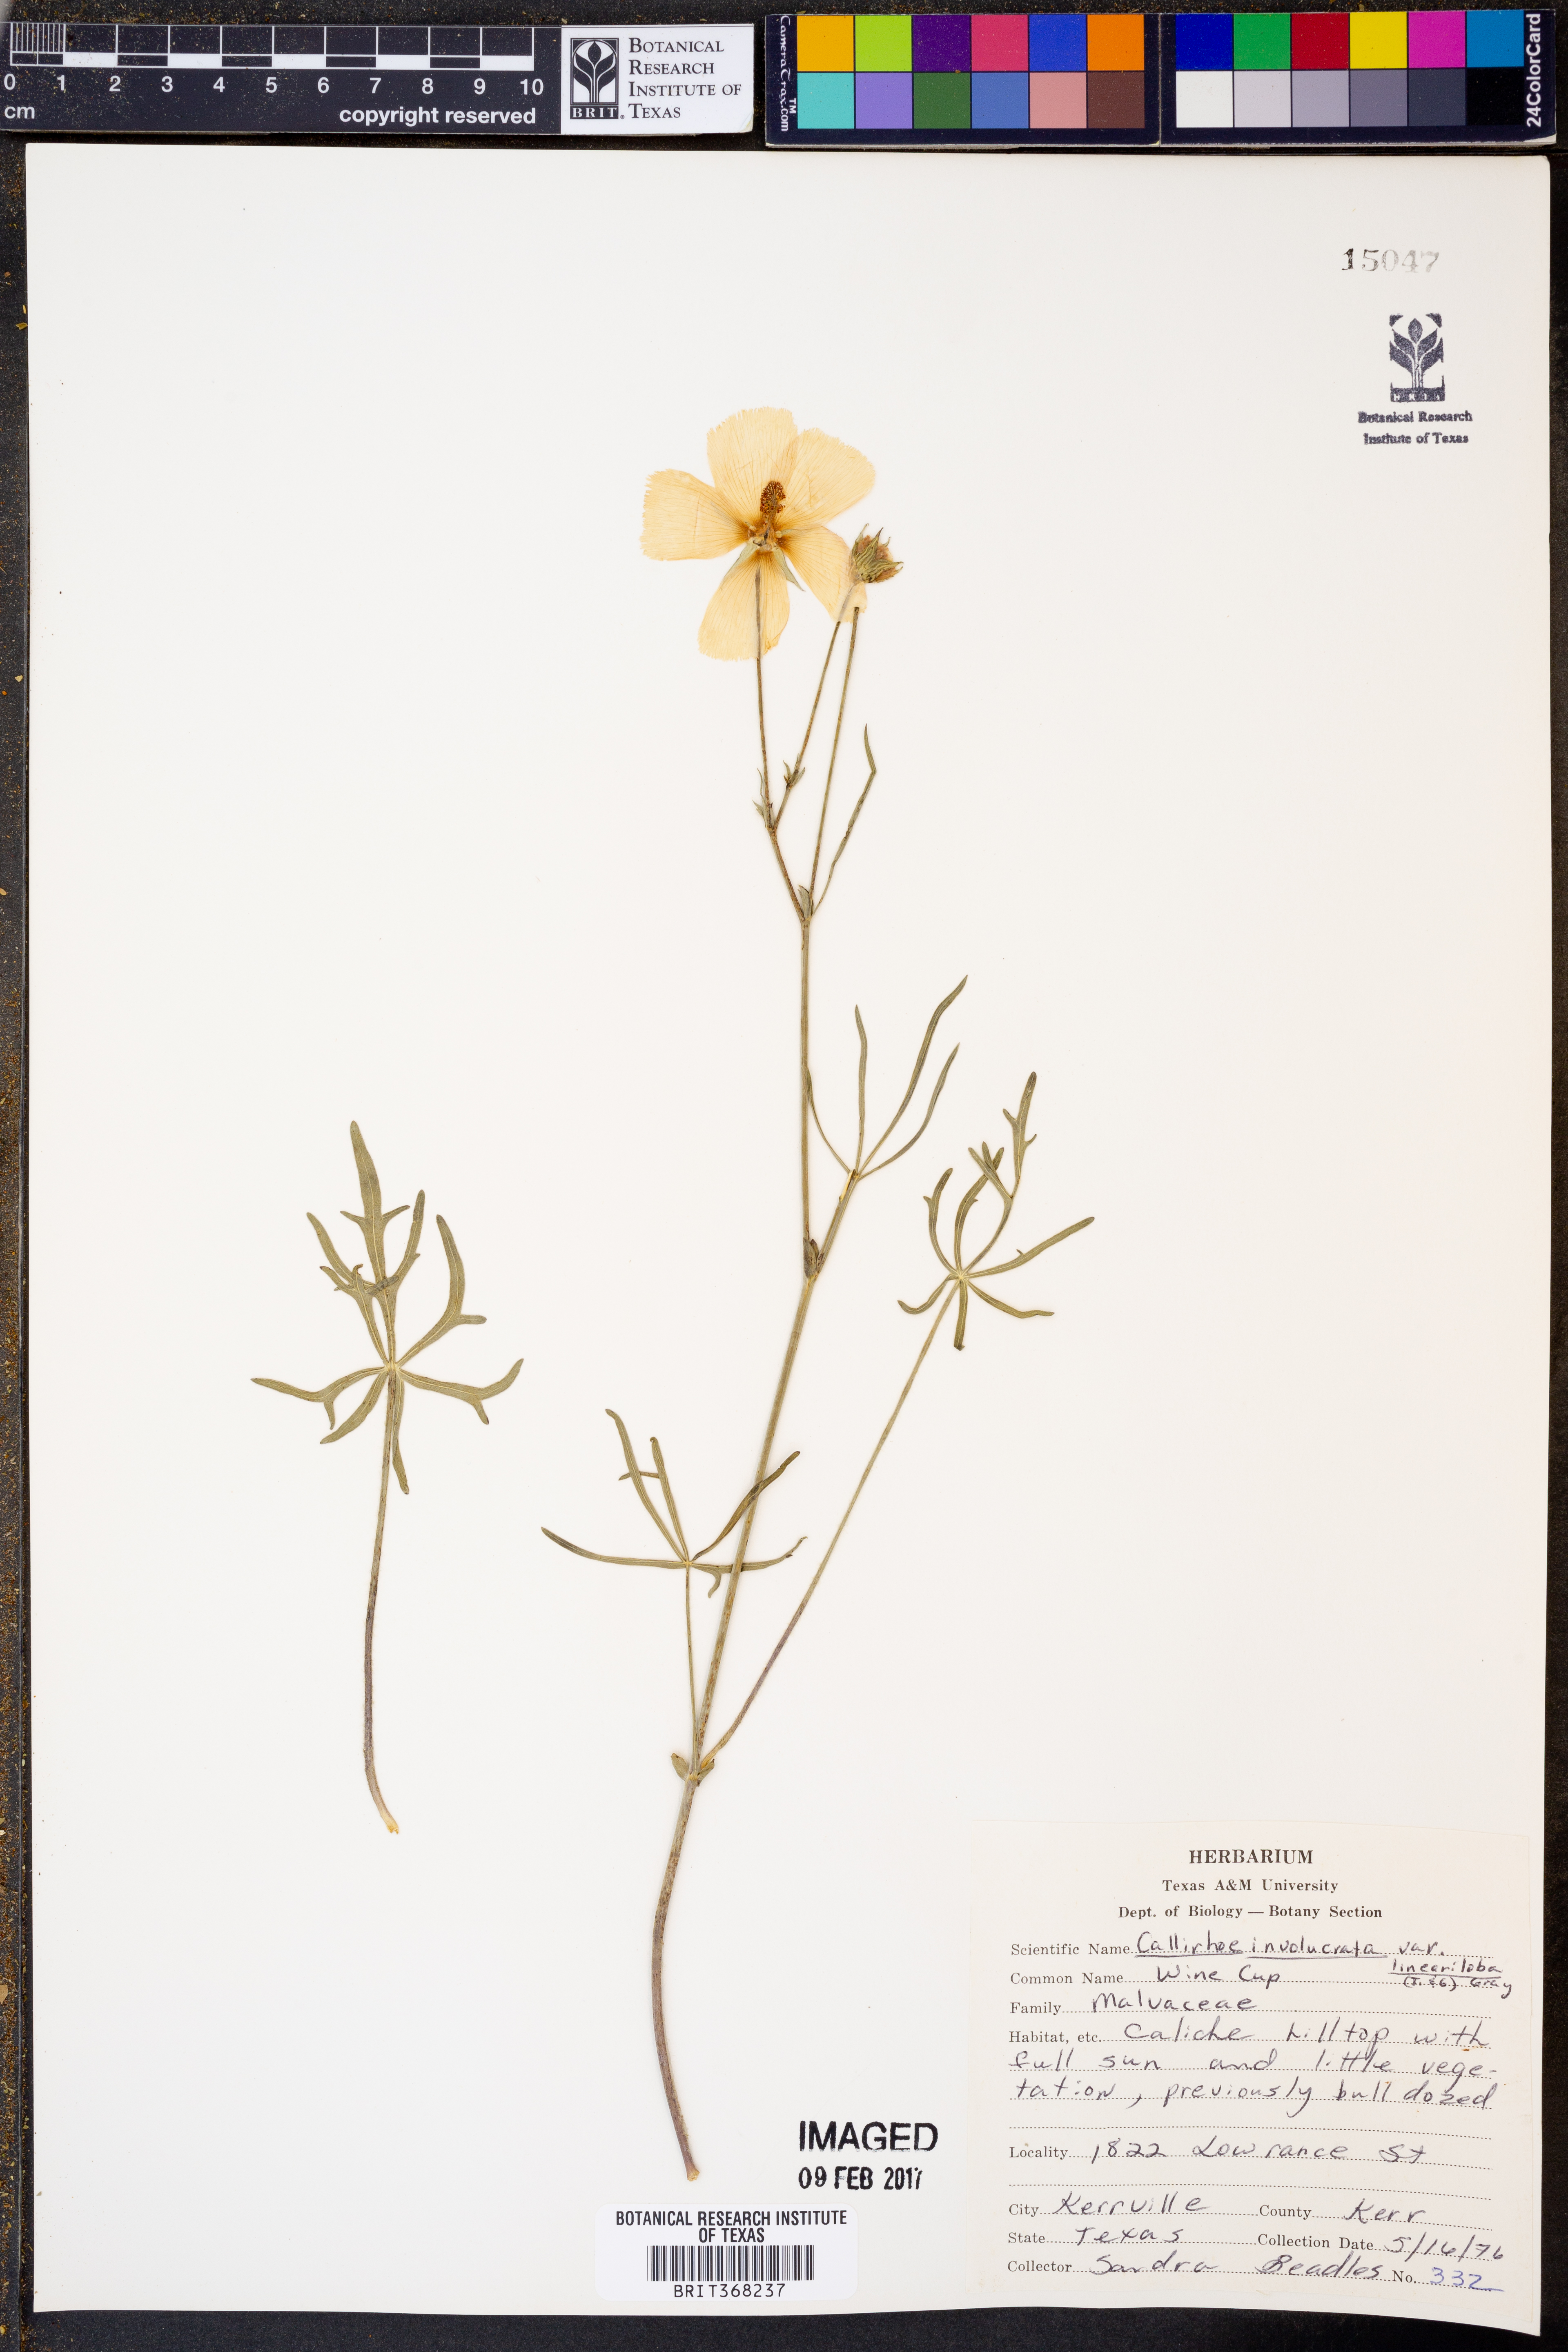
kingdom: Plantae
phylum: Tracheophyta
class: Magnoliopsida
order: Malvales
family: Malvaceae
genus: Callirhoe
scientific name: Callirhoe involucrata
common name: Purple poppy-mallow
